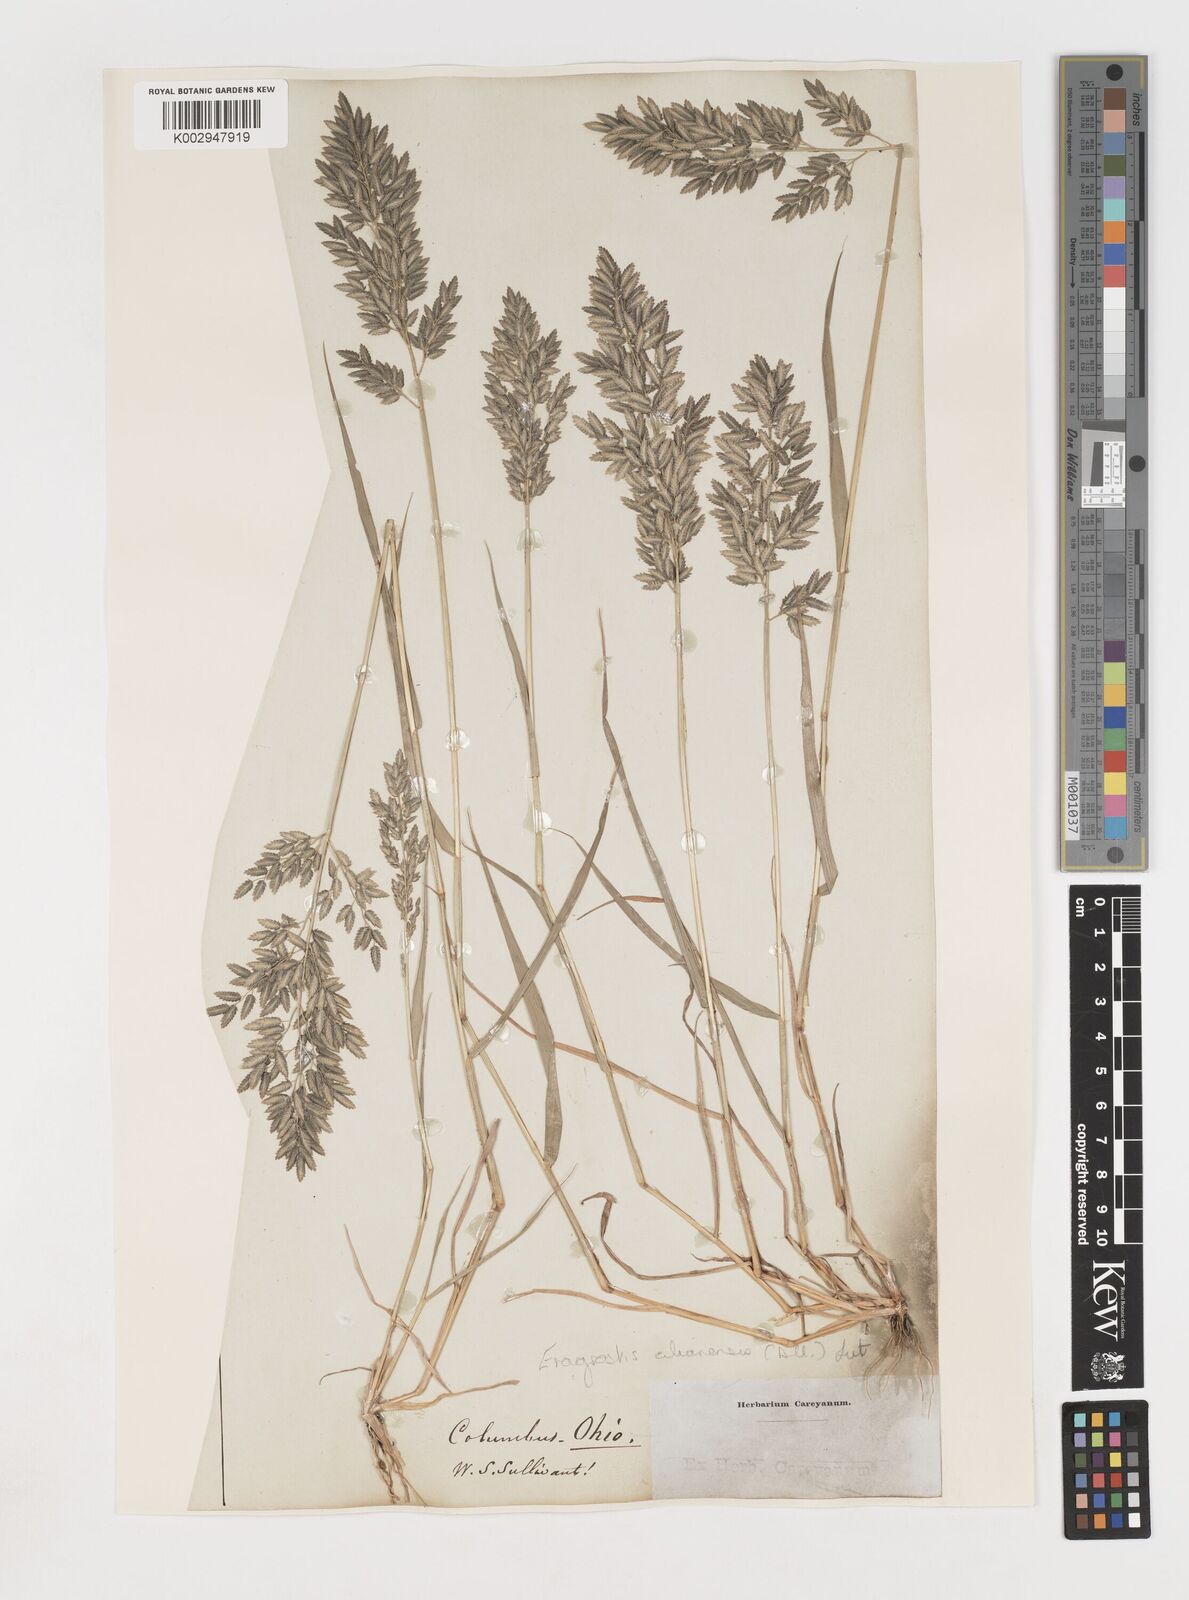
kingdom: Plantae
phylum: Tracheophyta
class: Liliopsida
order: Poales
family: Poaceae
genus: Eragrostis
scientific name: Eragrostis
